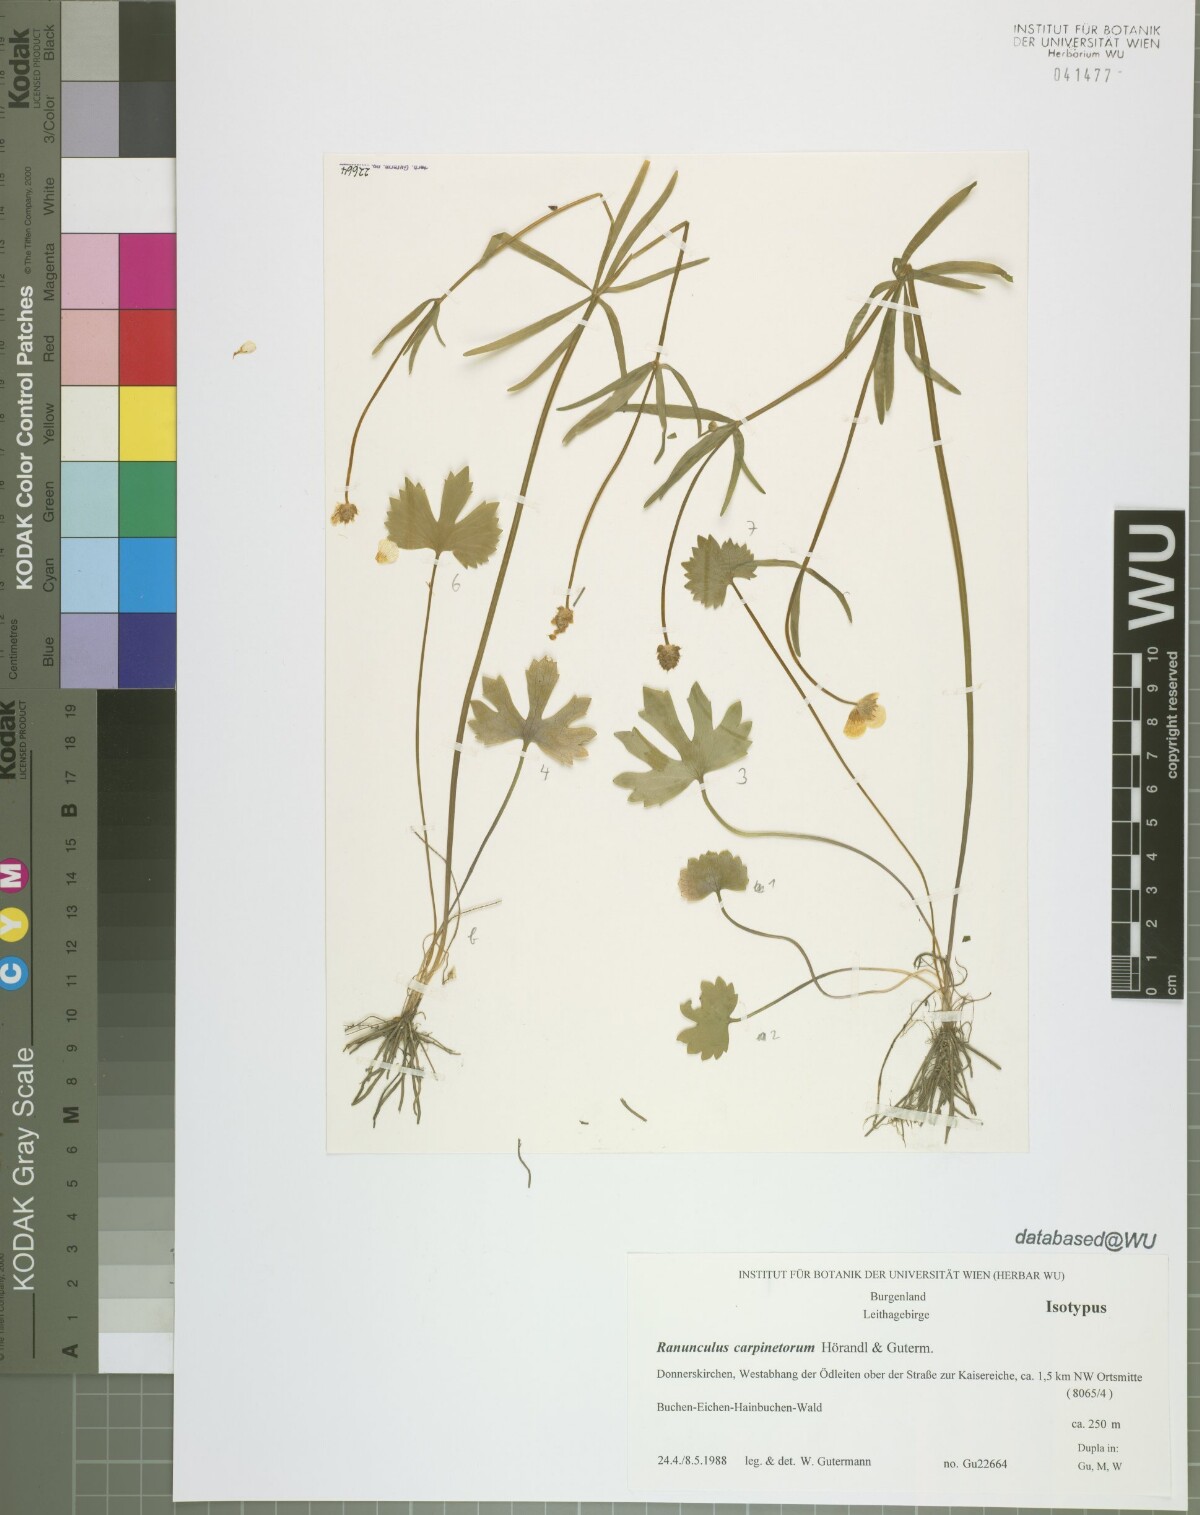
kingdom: Plantae
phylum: Tracheophyta
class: Magnoliopsida
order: Ranunculales
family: Ranunculaceae
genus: Ranunculus
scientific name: Ranunculus carpinetorum
